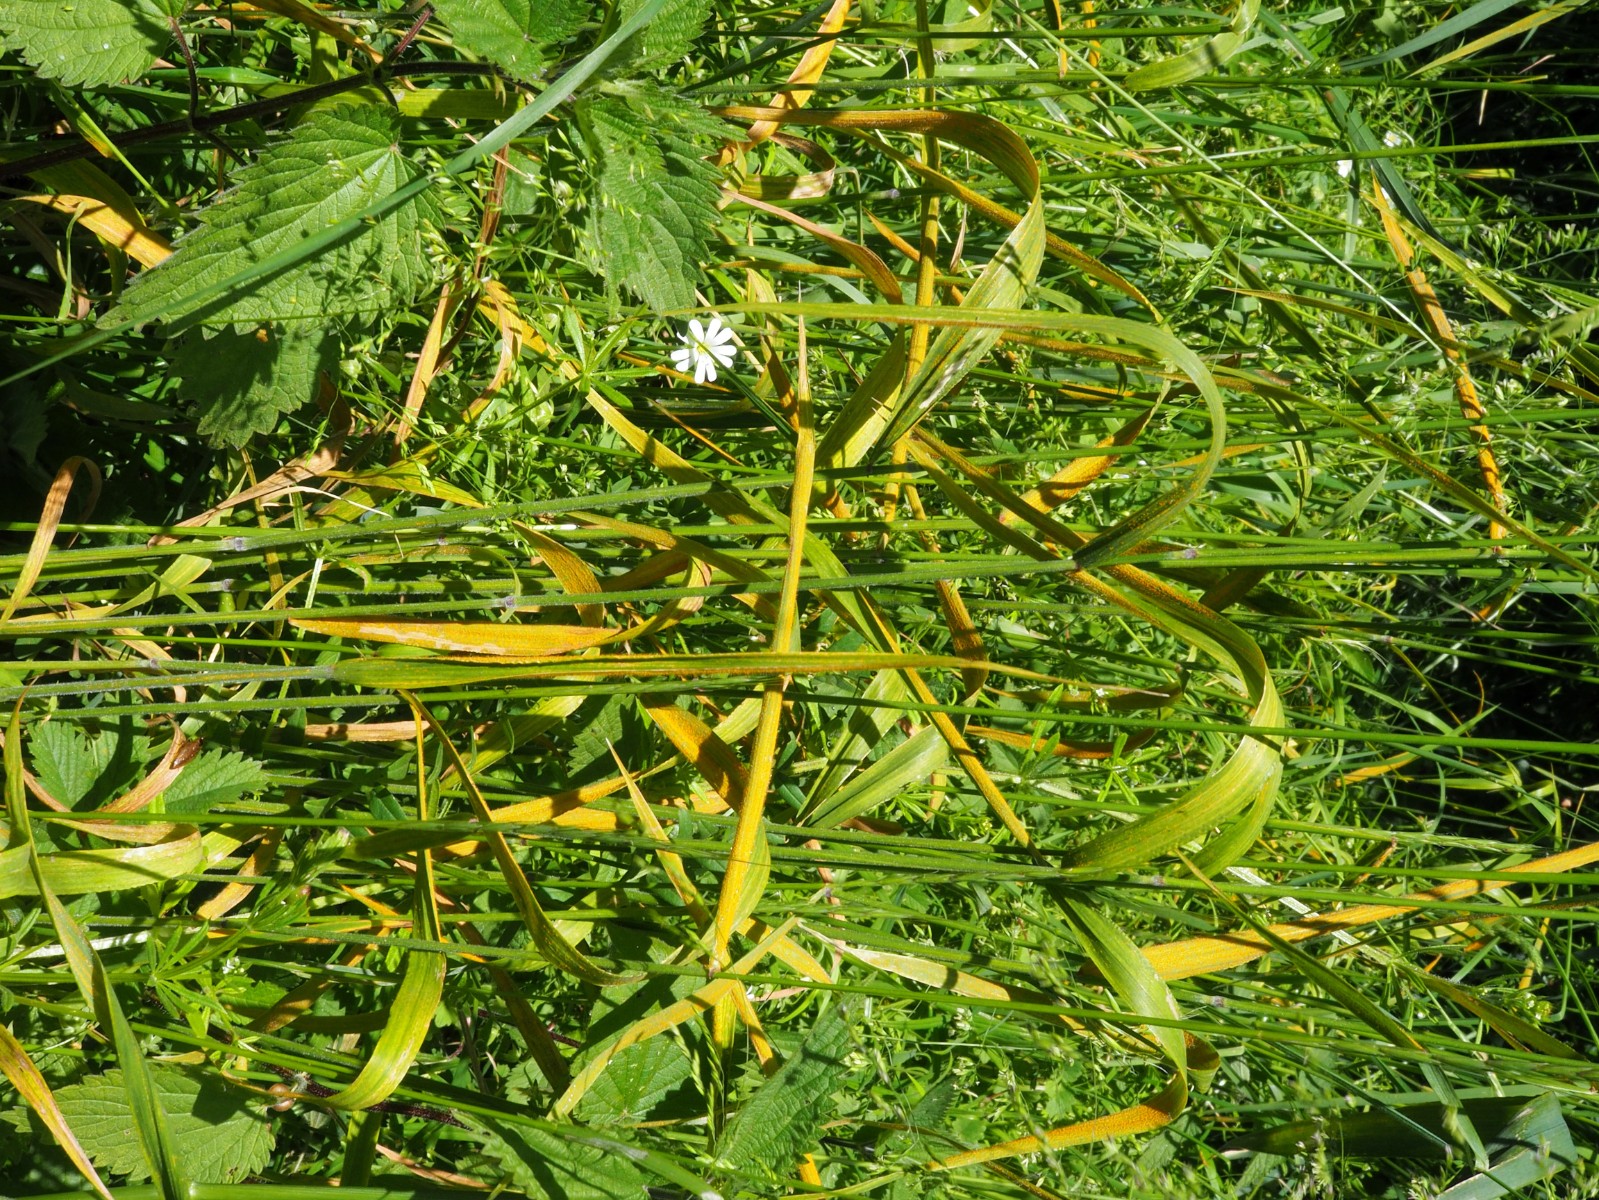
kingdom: Fungi
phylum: Basidiomycota
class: Pucciniomycetes
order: Pucciniales
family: Pucciniaceae
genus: Puccinia
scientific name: Puccinia striiformis
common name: stribe-tvecellerust
